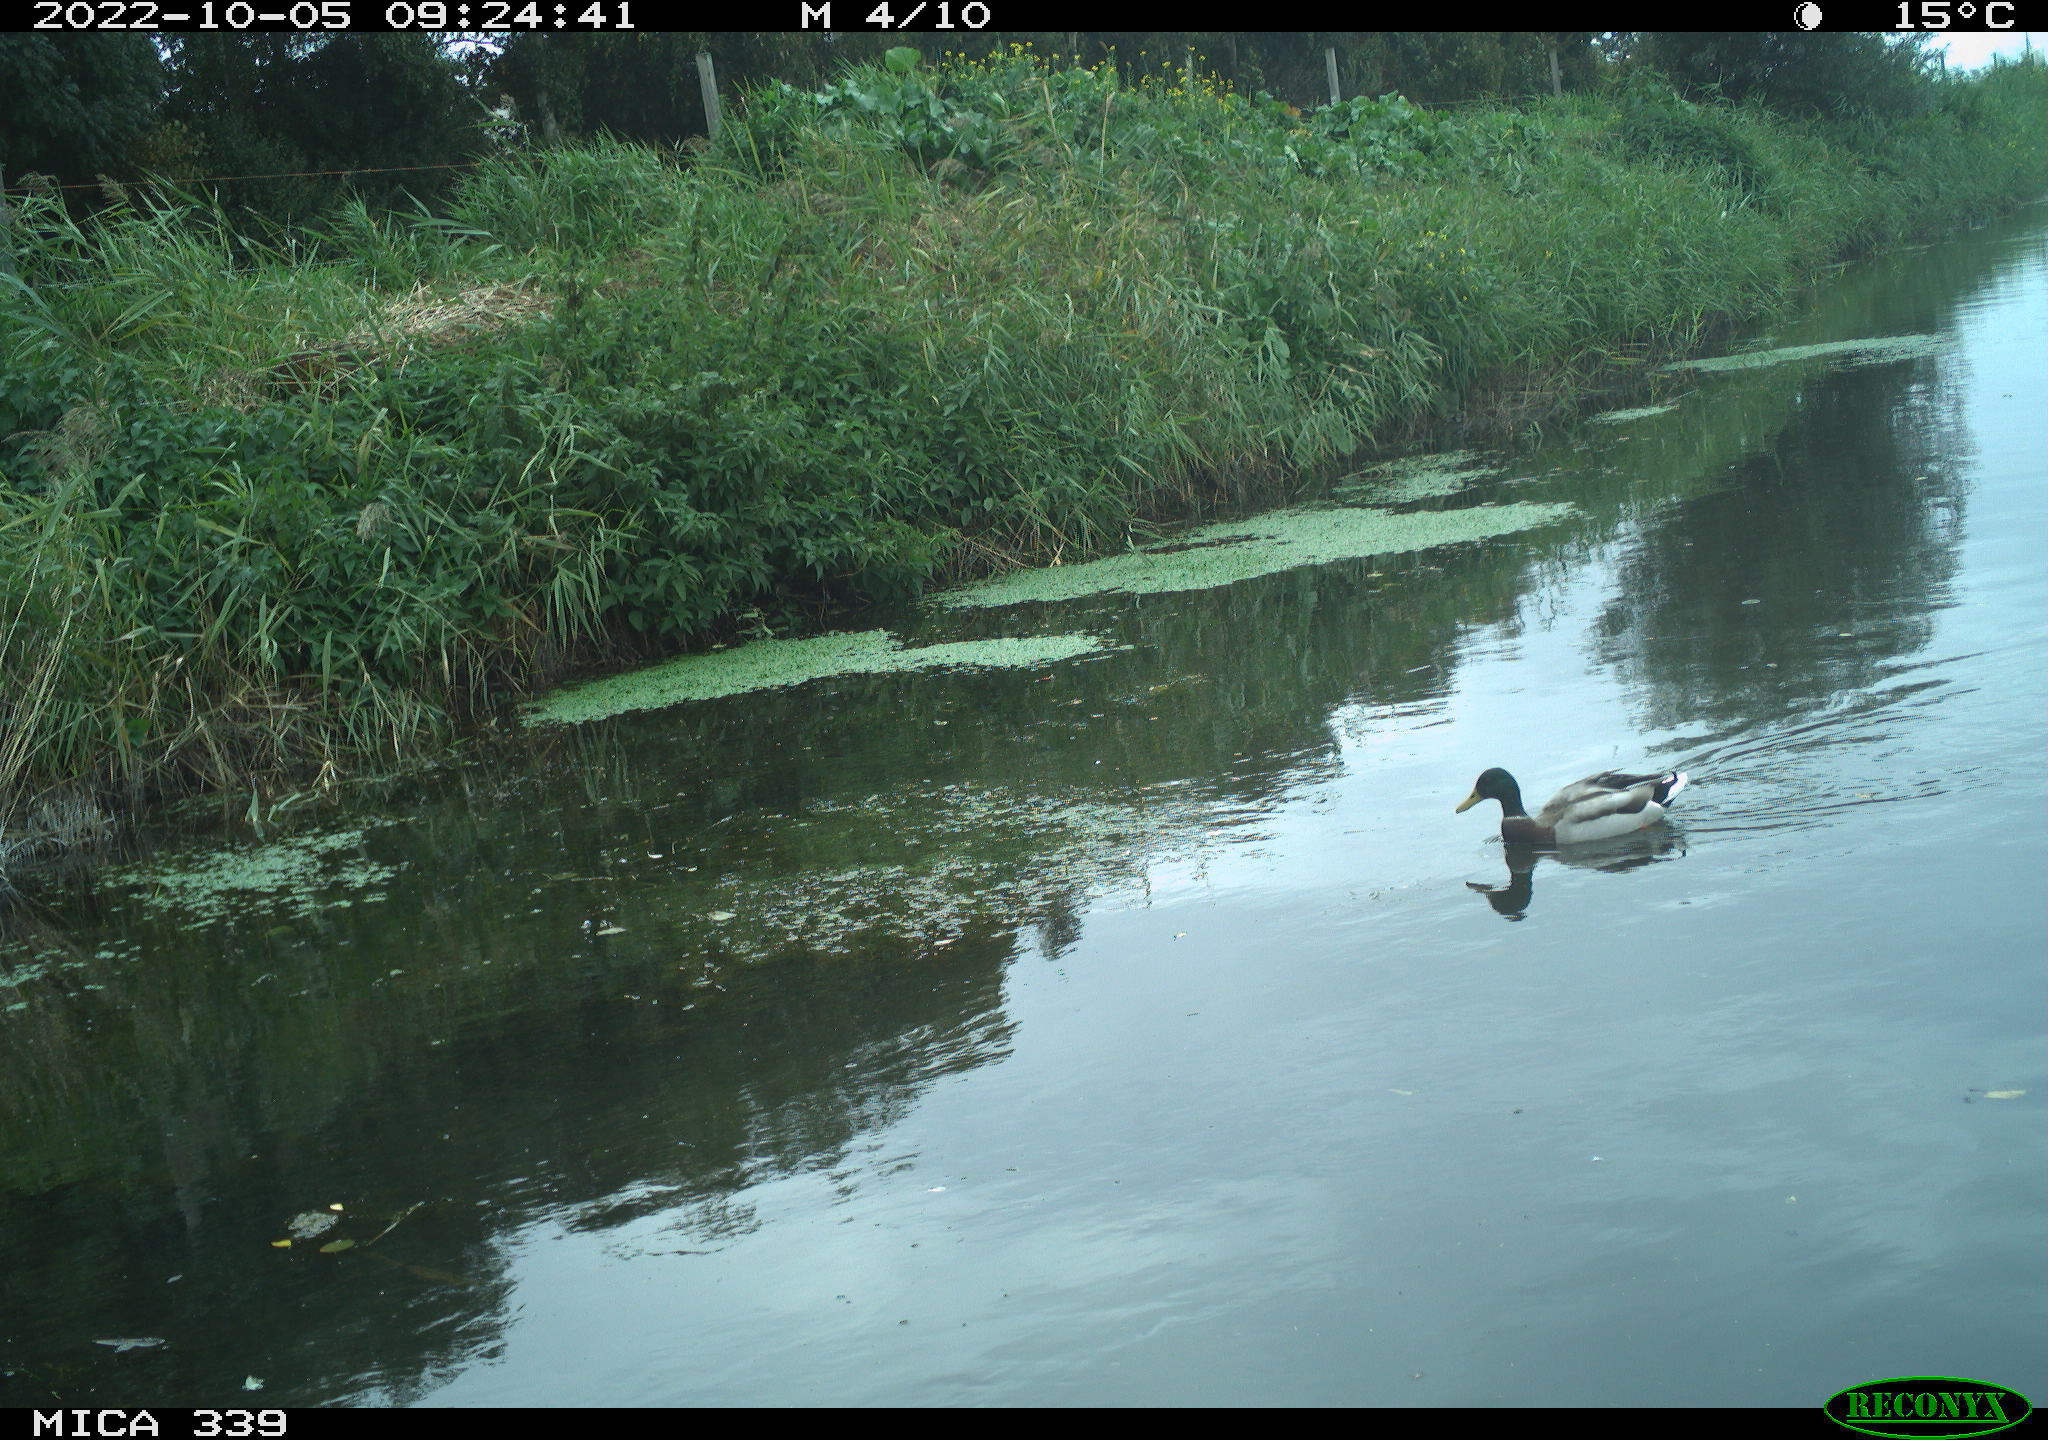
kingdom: Animalia
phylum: Chordata
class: Aves
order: Anseriformes
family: Anatidae
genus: Anas
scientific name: Anas platyrhynchos
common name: Mallard
